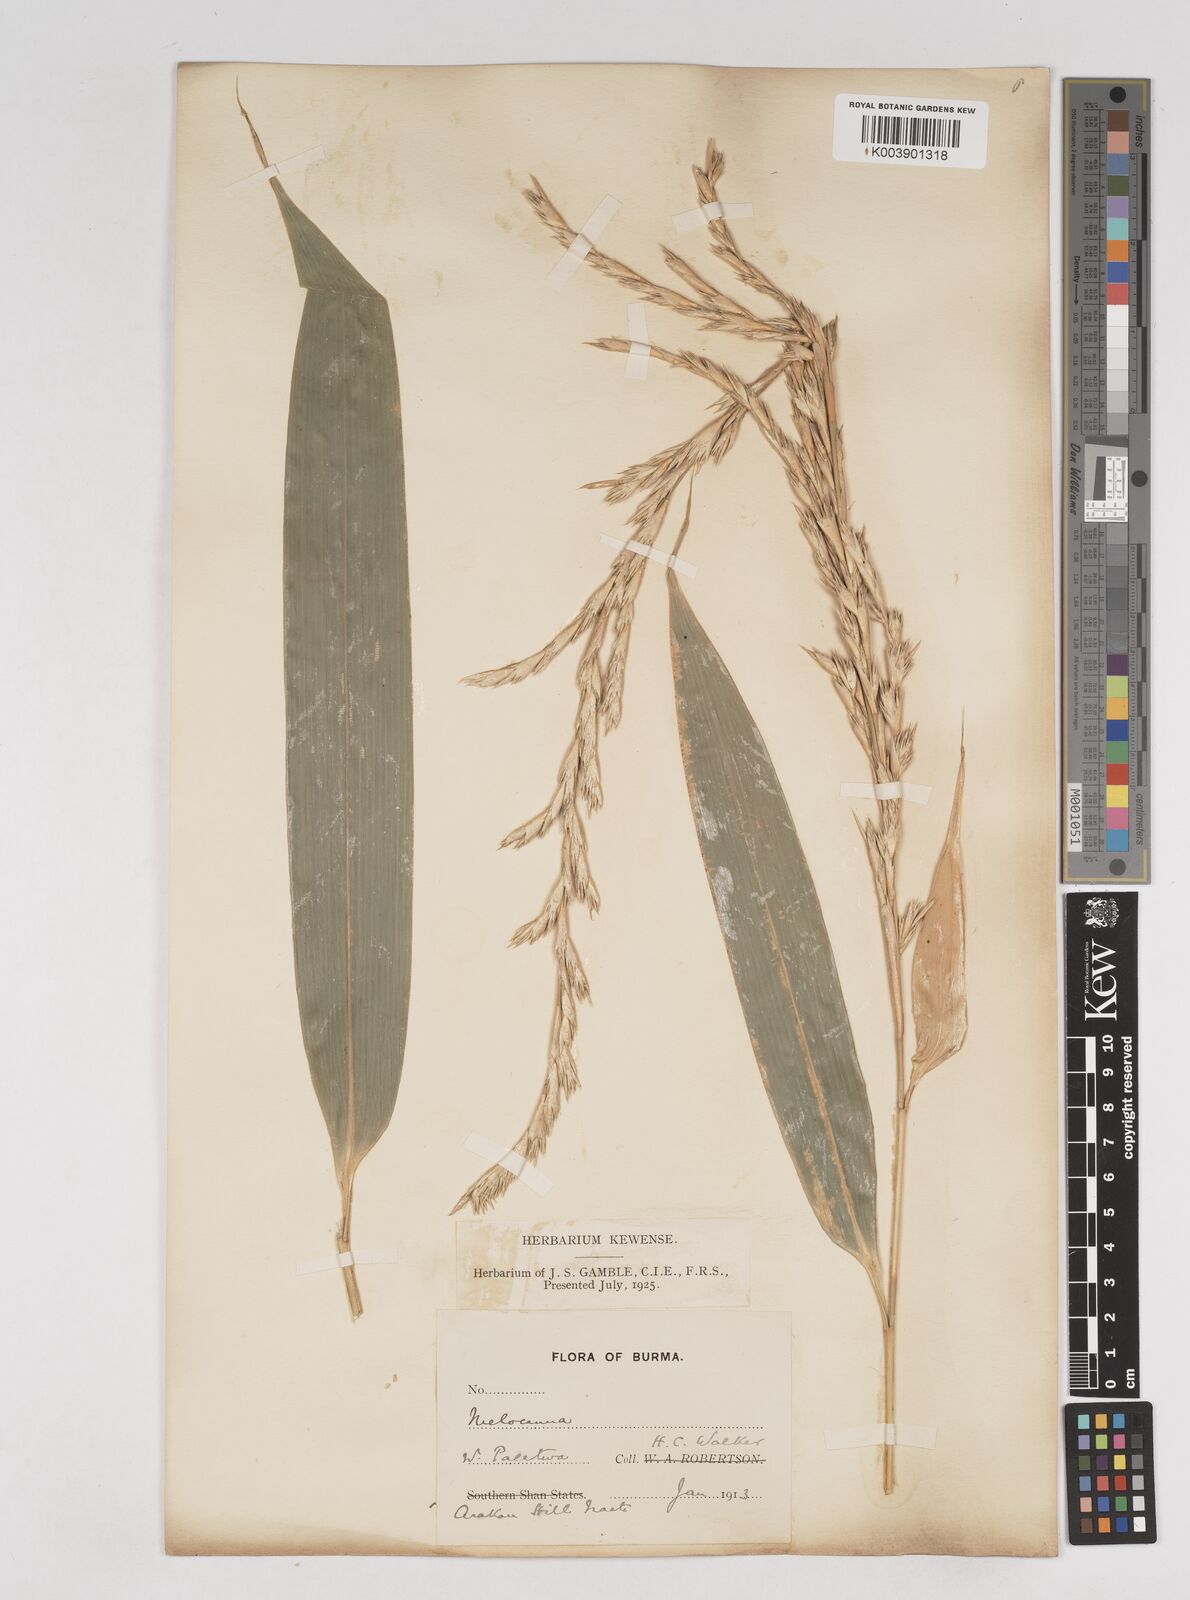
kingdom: Plantae
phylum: Tracheophyta
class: Liliopsida
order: Poales
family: Poaceae
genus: Melocanna
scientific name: Melocanna
